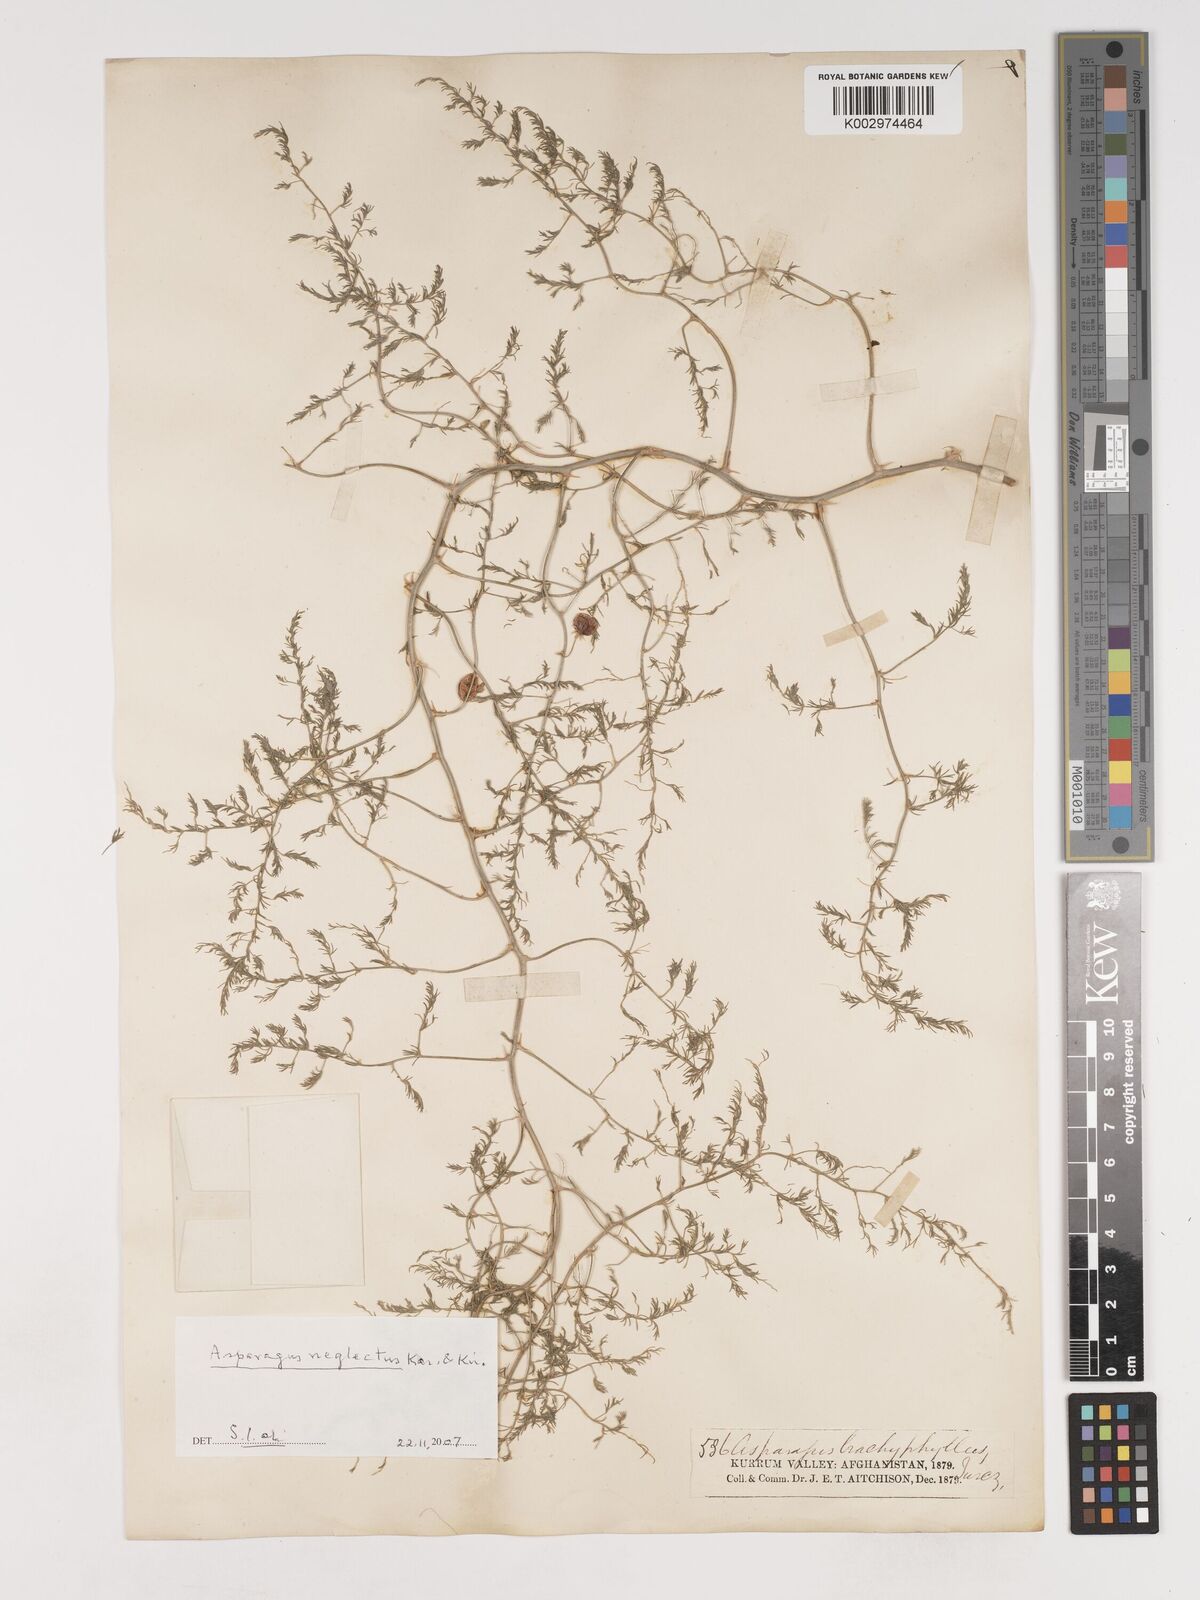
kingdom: Plantae
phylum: Tracheophyta
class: Liliopsida
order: Asparagales
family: Asparagaceae
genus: Asparagus
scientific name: Asparagus neglectus
